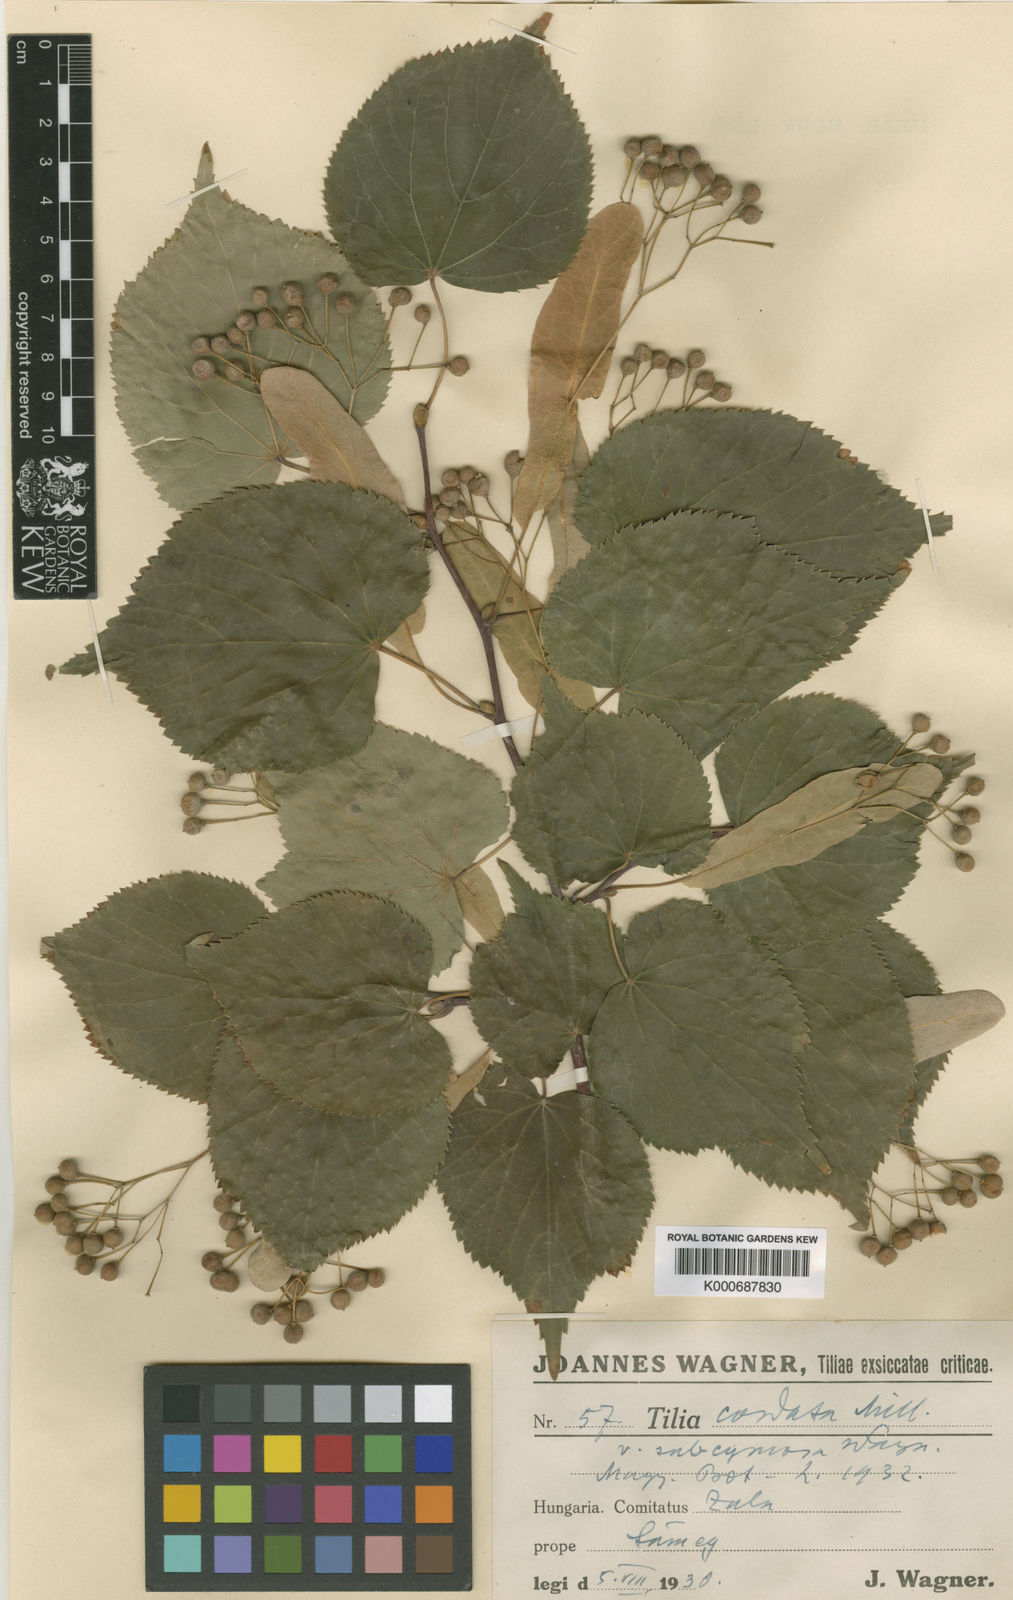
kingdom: Plantae
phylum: Tracheophyta
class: Magnoliopsida
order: Malvales
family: Malvaceae
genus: Tilia
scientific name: Tilia cordata
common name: Small-leaved lime
